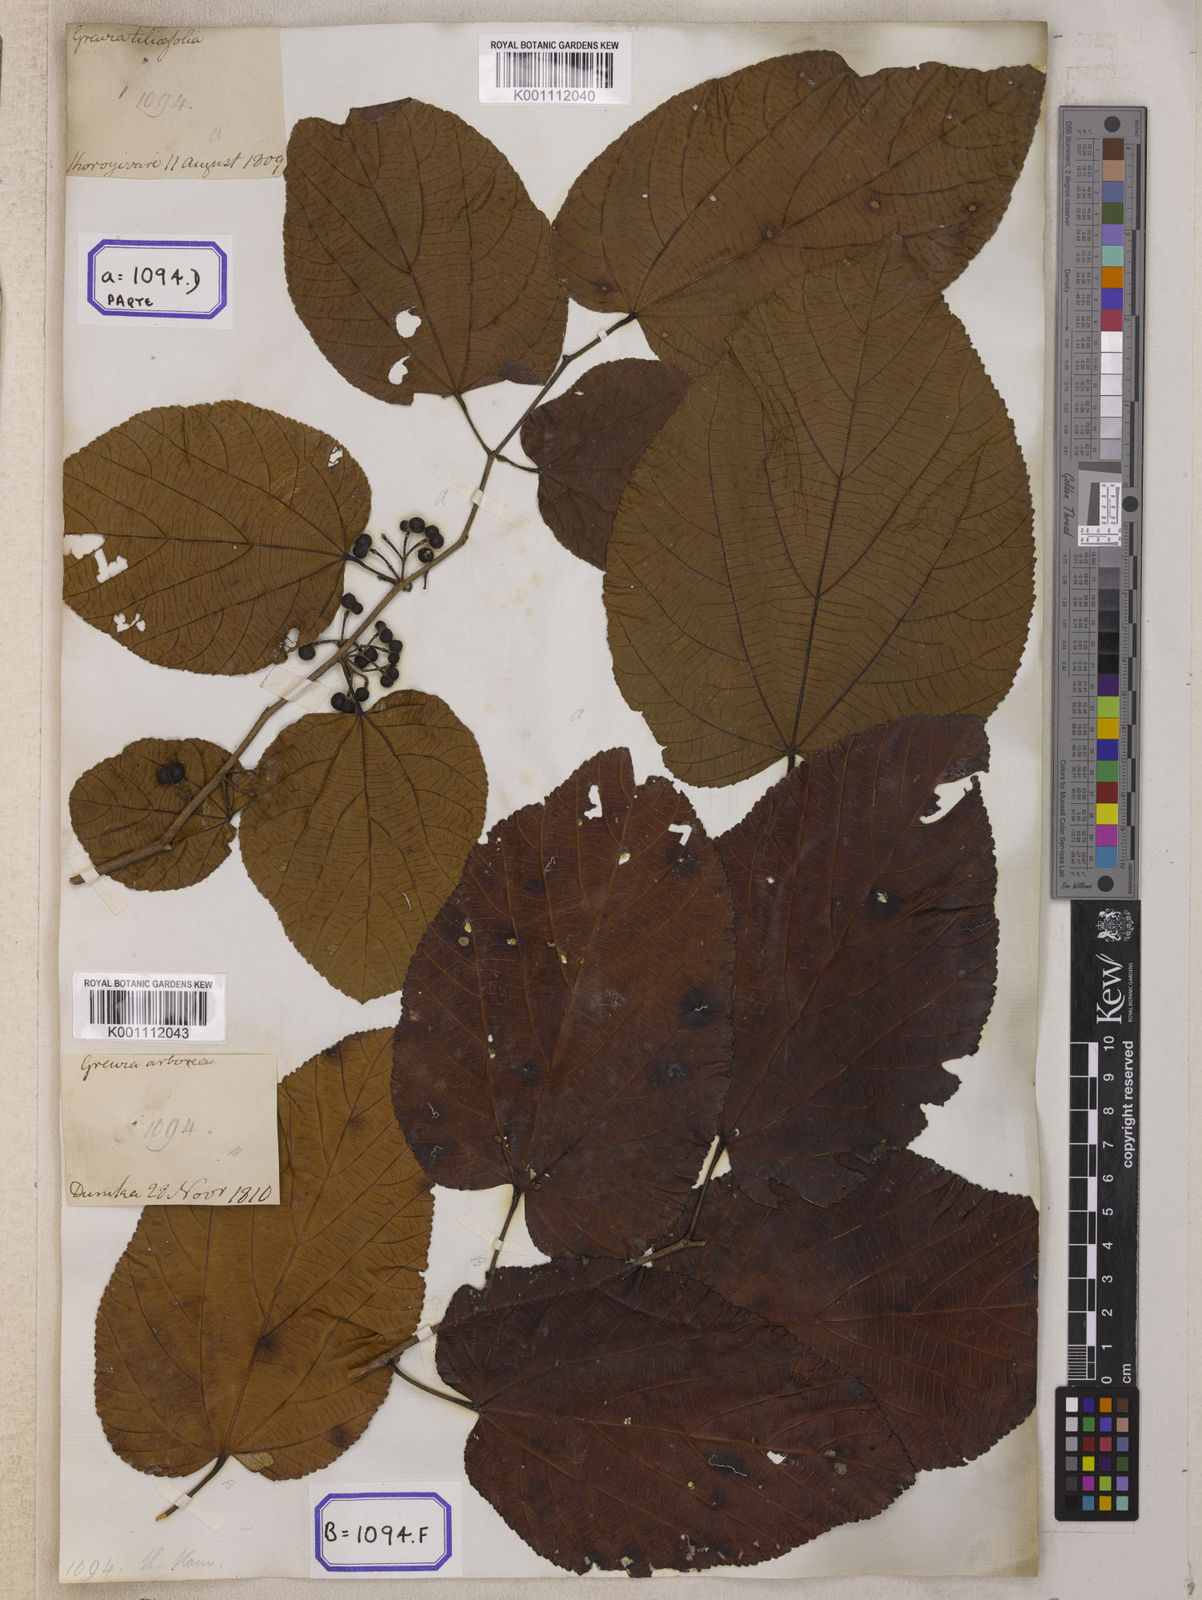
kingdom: Plantae
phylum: Tracheophyta
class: Magnoliopsida
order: Malvales
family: Malvaceae
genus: Grewia
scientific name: Grewia tiliifolia
